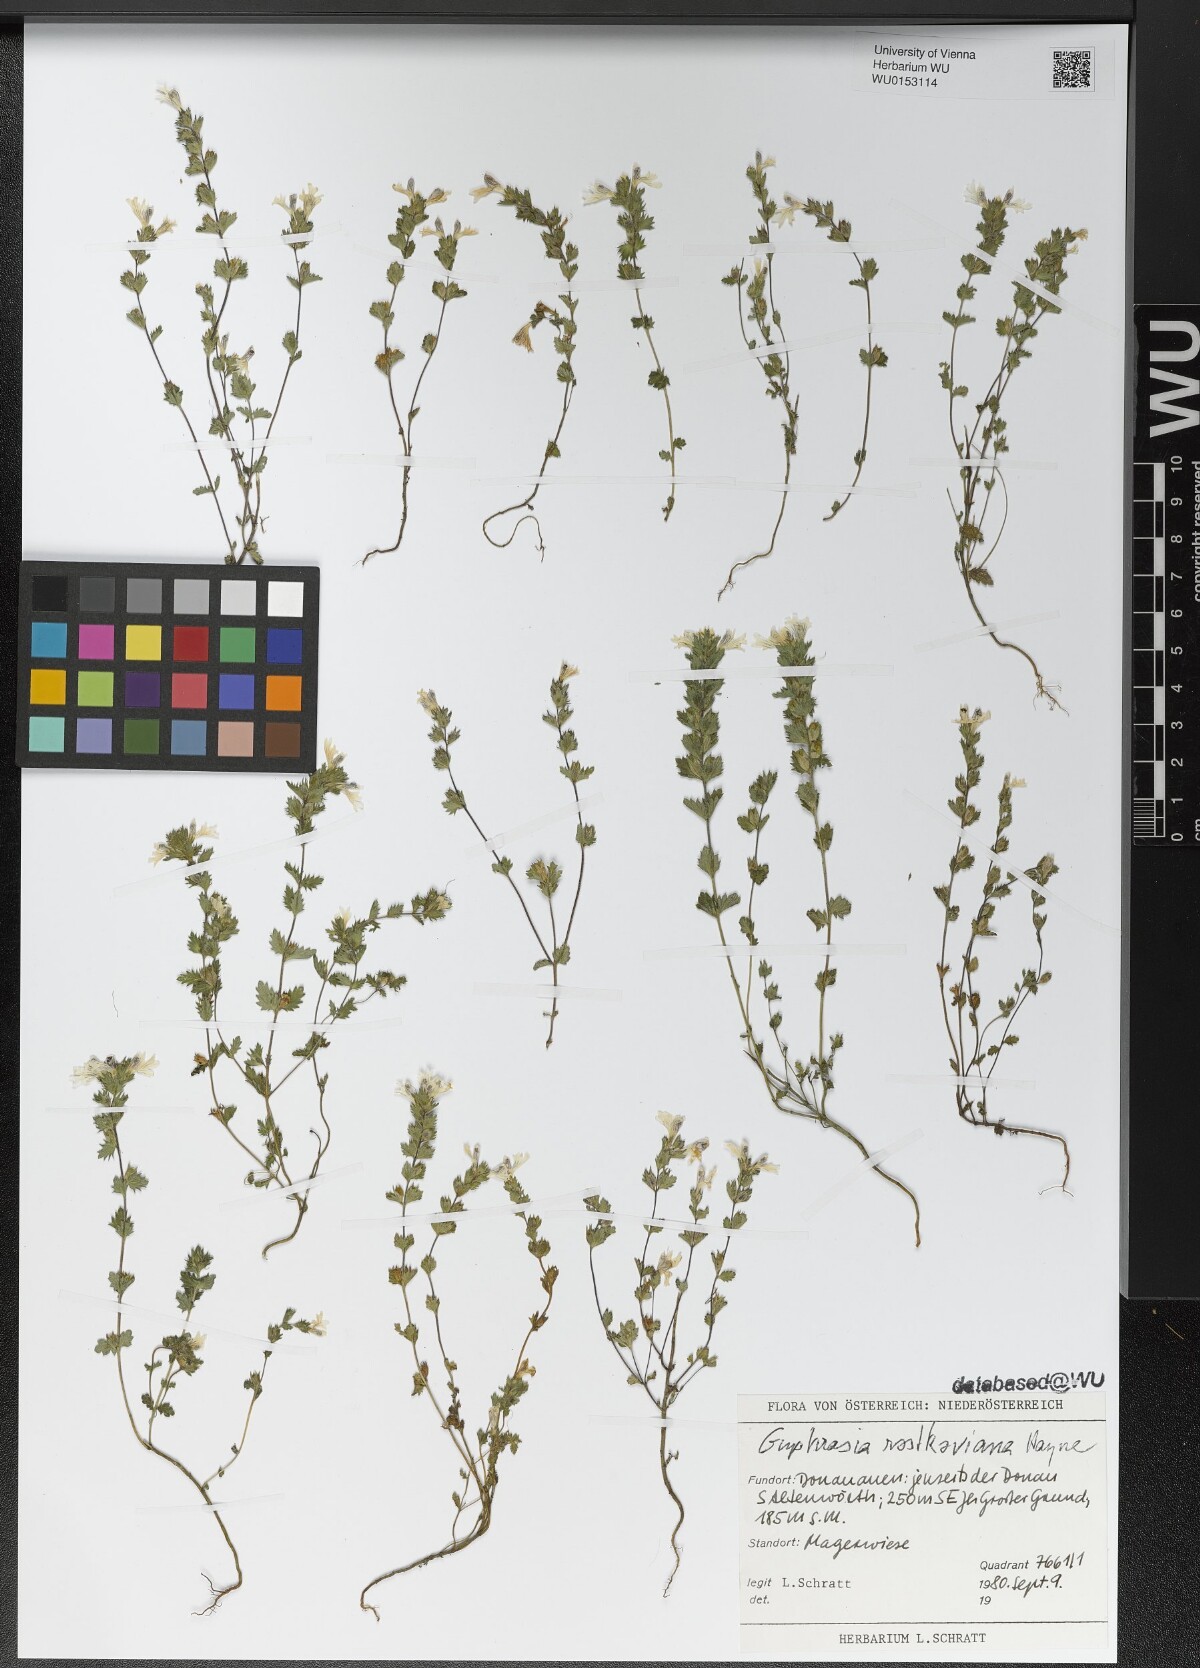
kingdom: Plantae
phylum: Tracheophyta
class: Magnoliopsida
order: Lamiales
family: Orobanchaceae
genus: Euphrasia
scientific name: Euphrasia officinalis
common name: Eyebright
